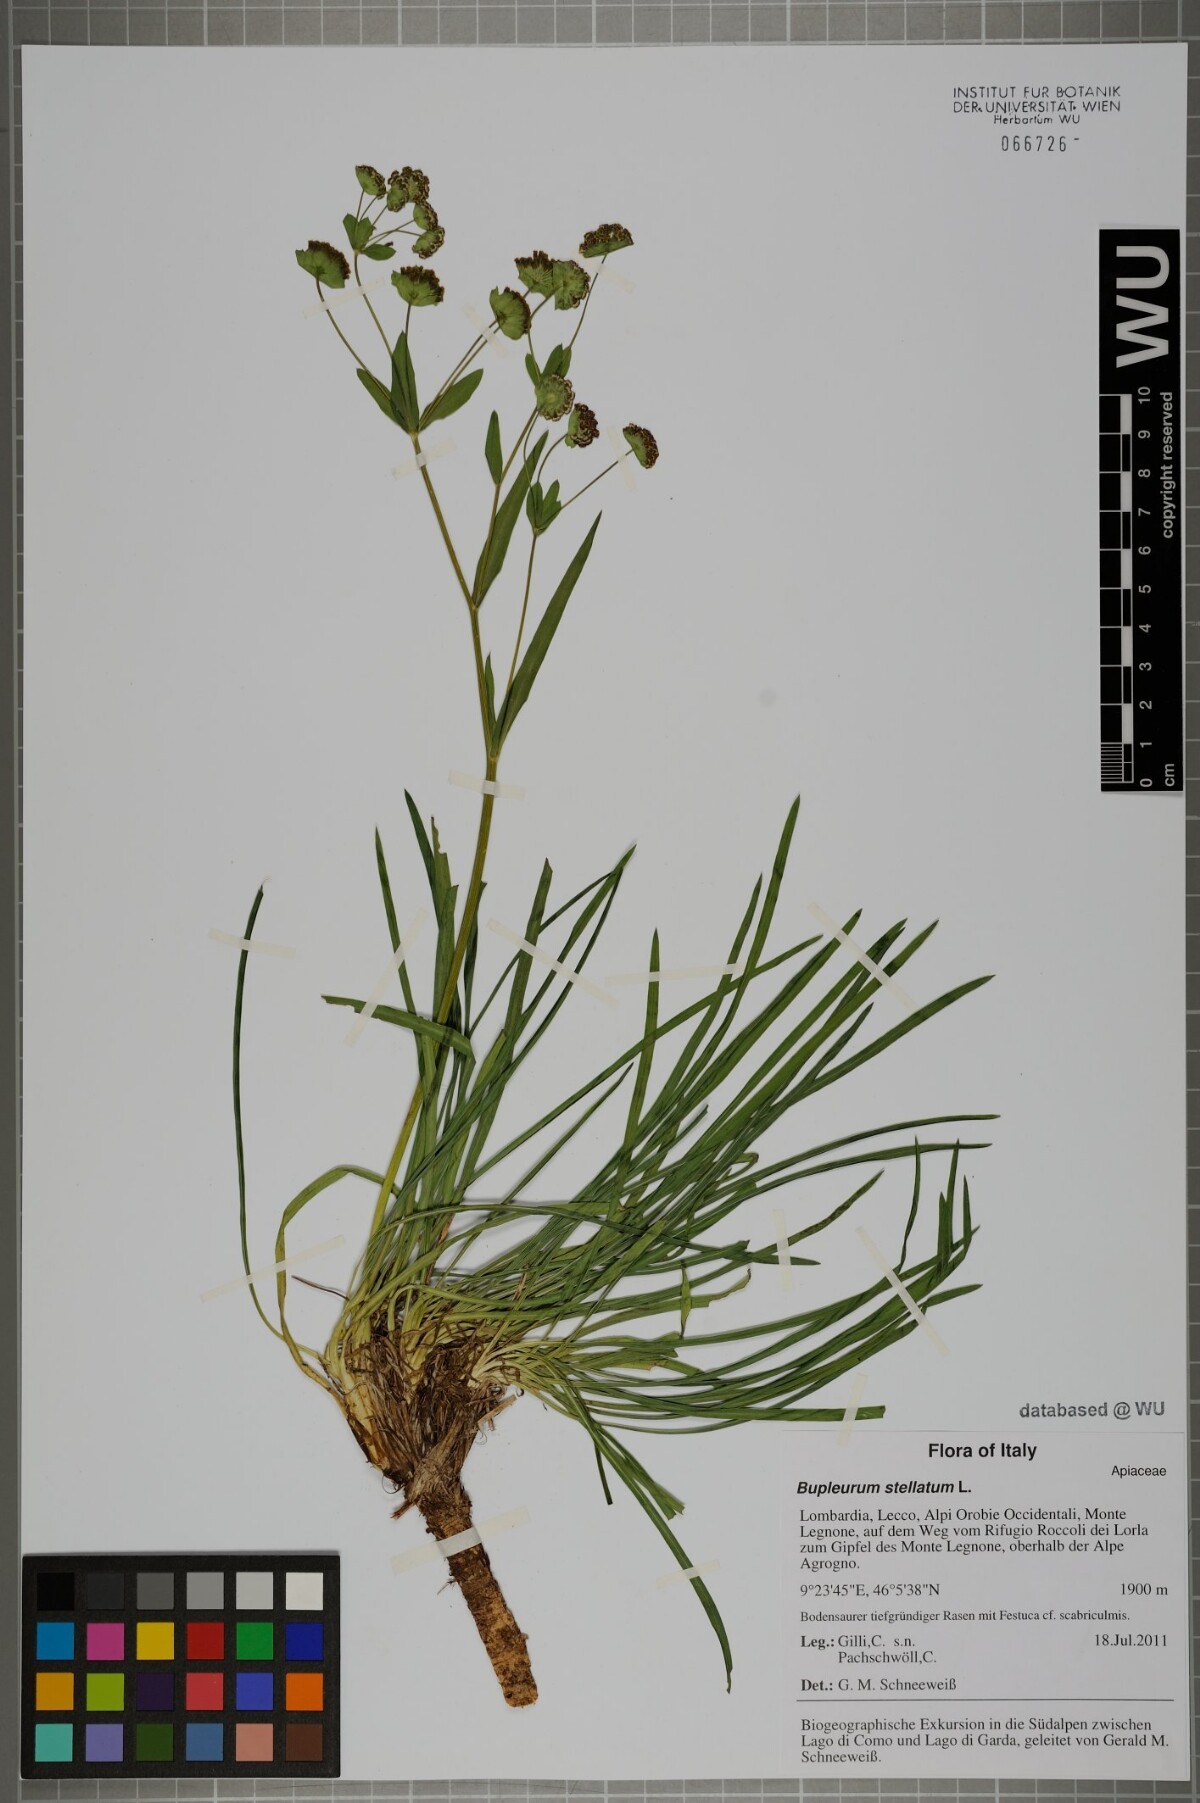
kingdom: Plantae
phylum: Tracheophyta
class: Magnoliopsida
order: Apiales
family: Apiaceae
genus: Bupleurum
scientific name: Bupleurum stellatum
